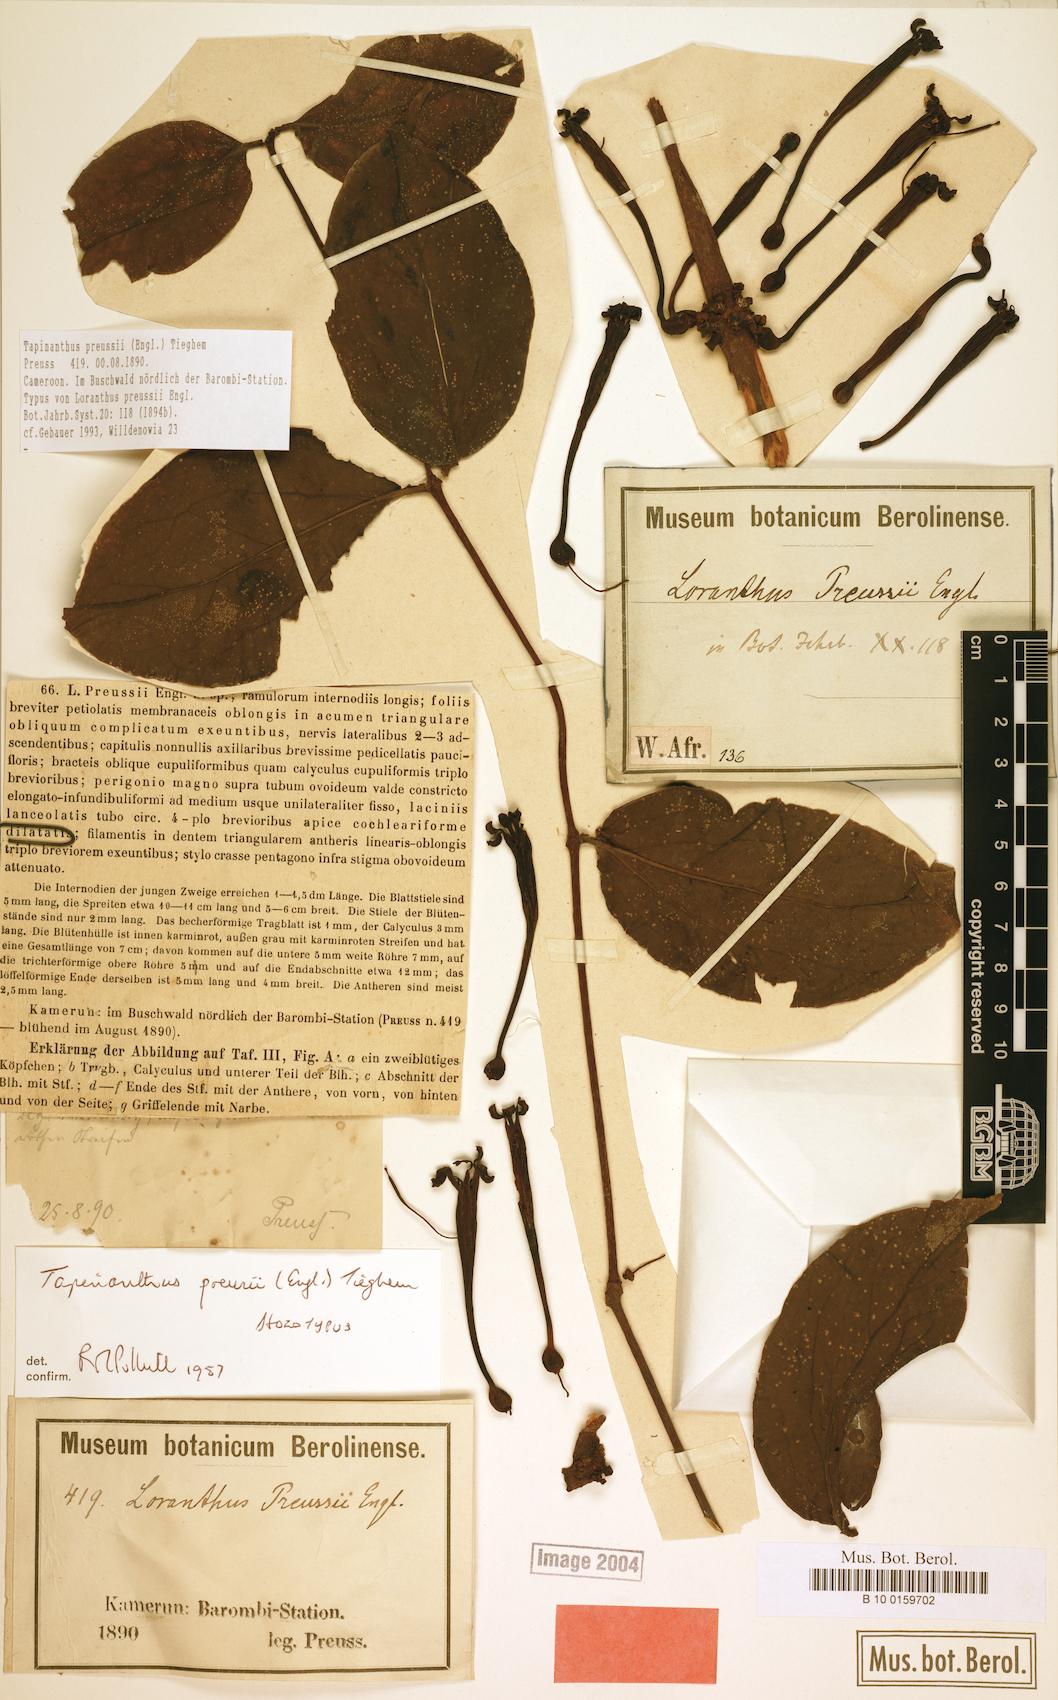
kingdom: Plantae
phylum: Tracheophyta
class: Magnoliopsida
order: Santalales
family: Loranthaceae
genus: Tapinanthus
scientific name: Tapinanthus preussii
